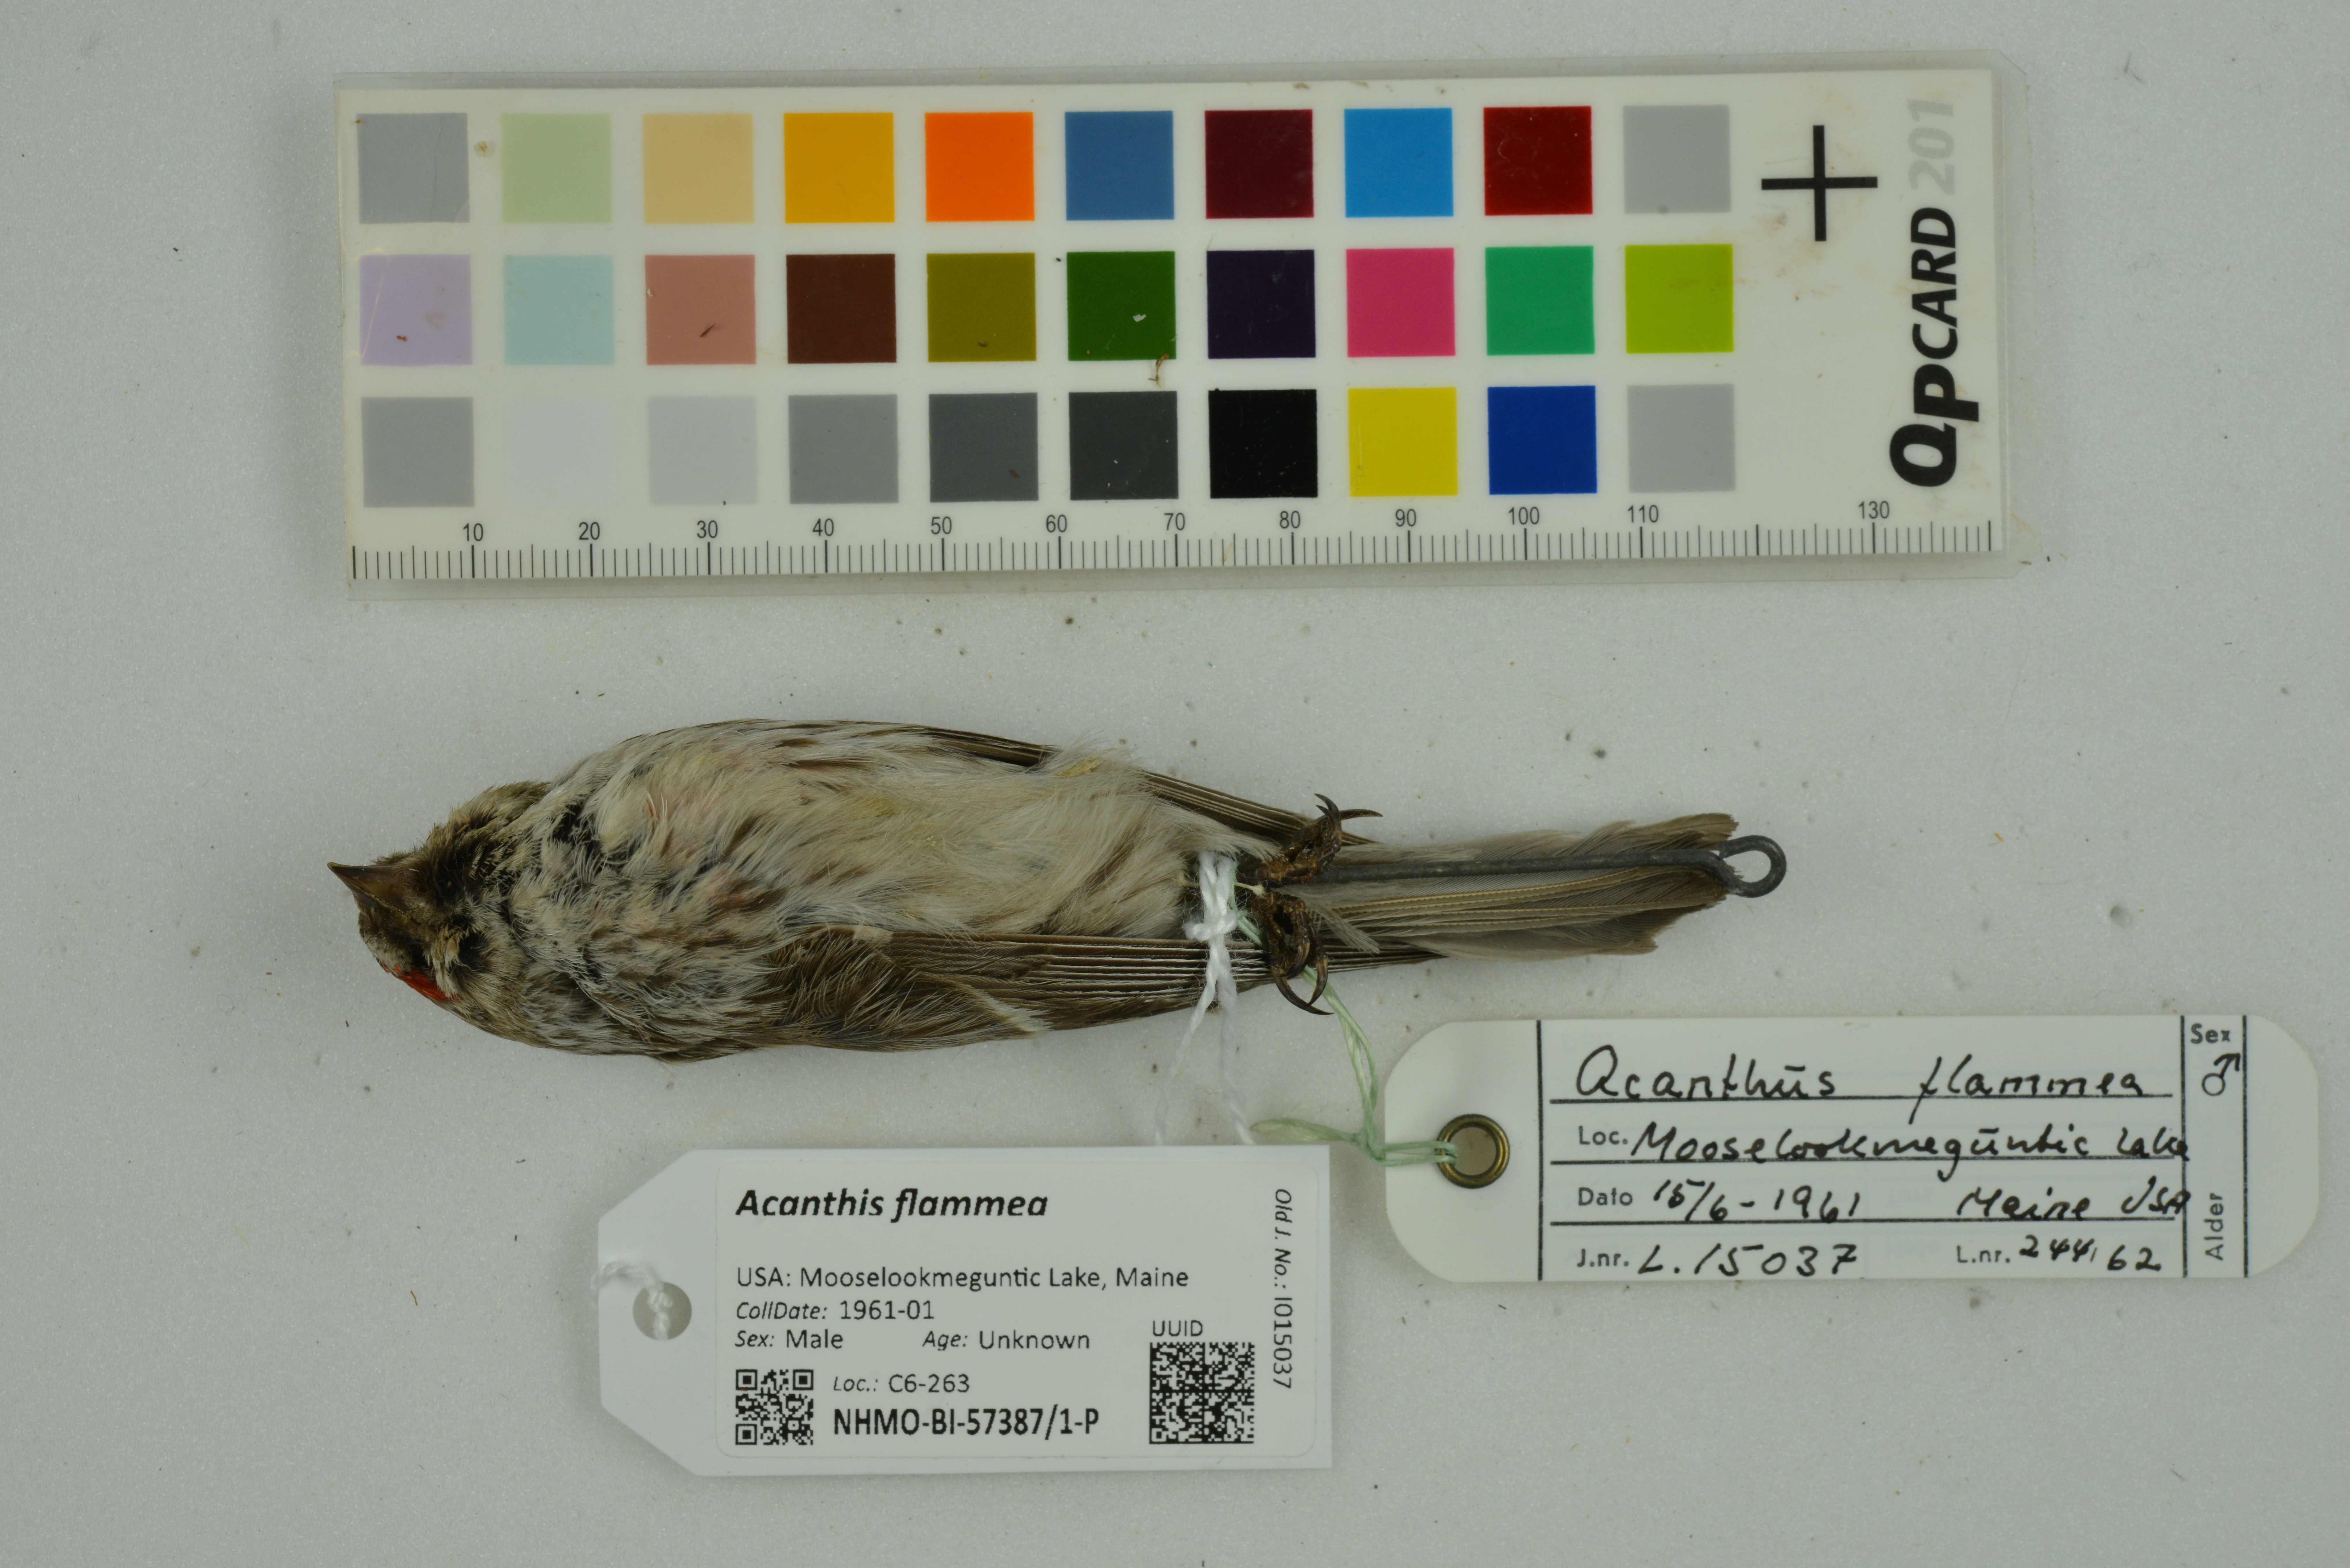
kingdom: Animalia
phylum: Chordata
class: Aves
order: Passeriformes
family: Fringillidae
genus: Acanthis
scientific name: Acanthis flammea
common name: Common redpoll
